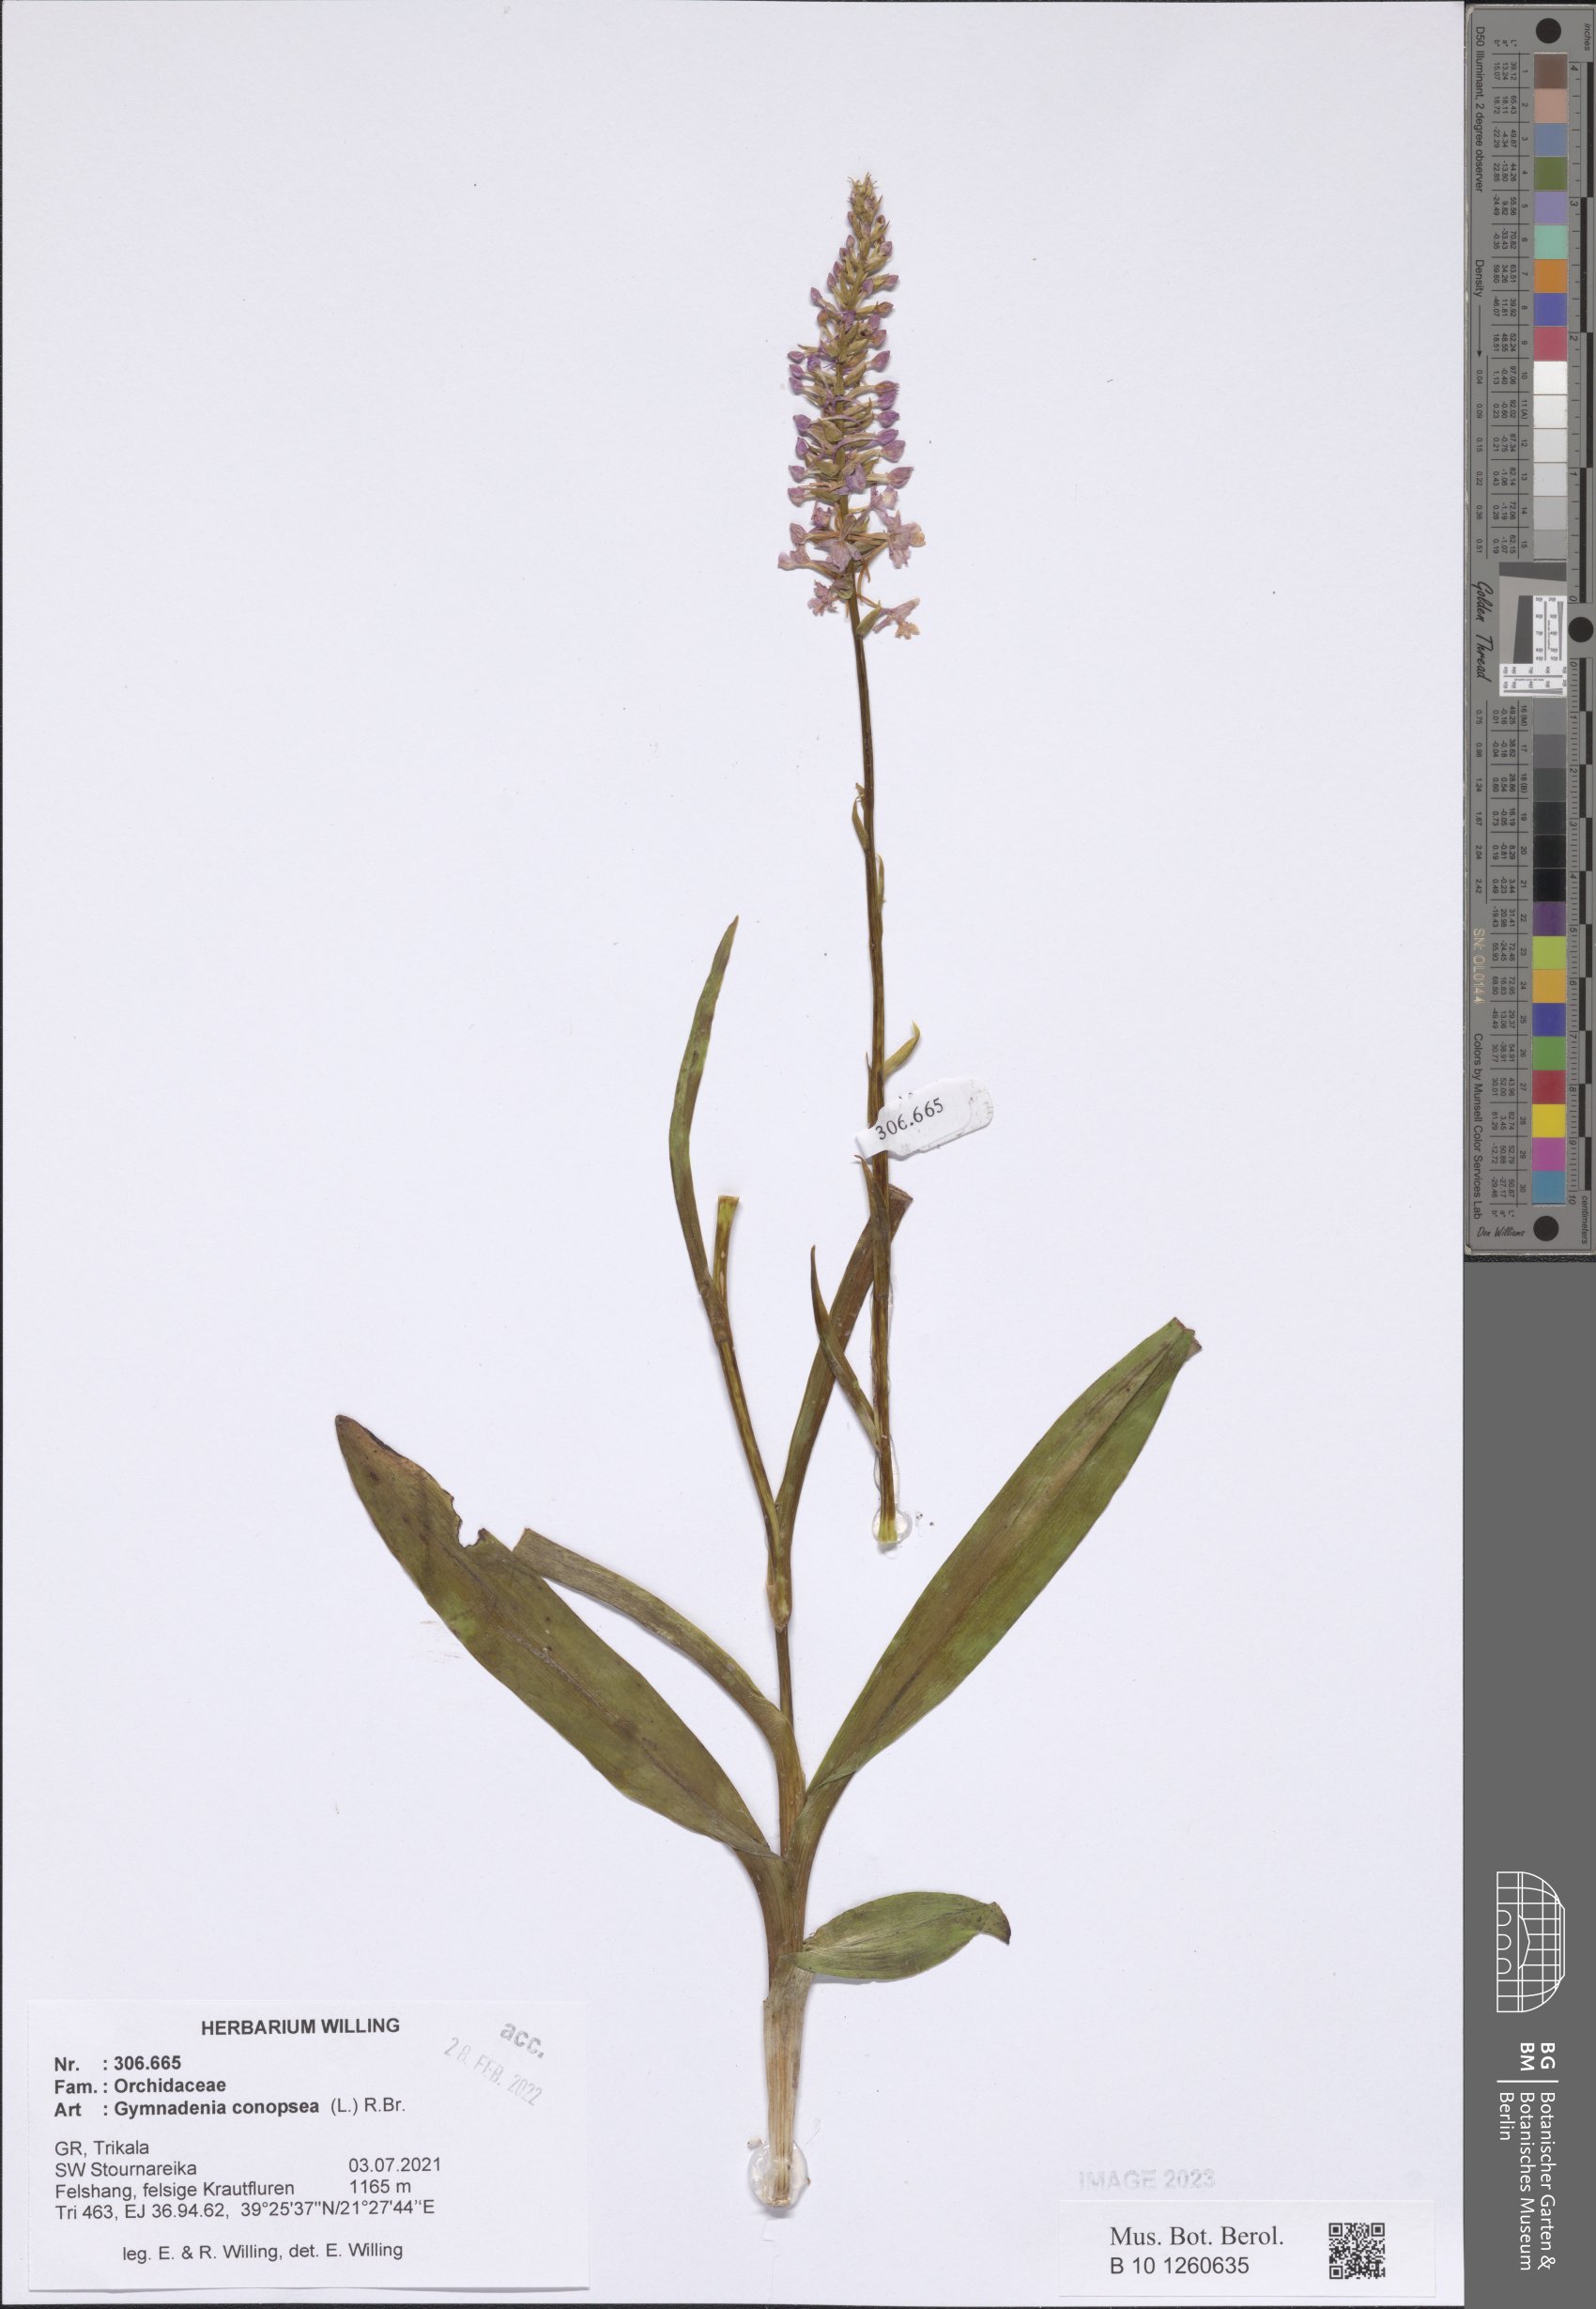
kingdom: Plantae
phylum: Tracheophyta
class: Liliopsida
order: Asparagales
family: Orchidaceae
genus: Gymnadenia
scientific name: Gymnadenia conopsea
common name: Fragrant orchid
